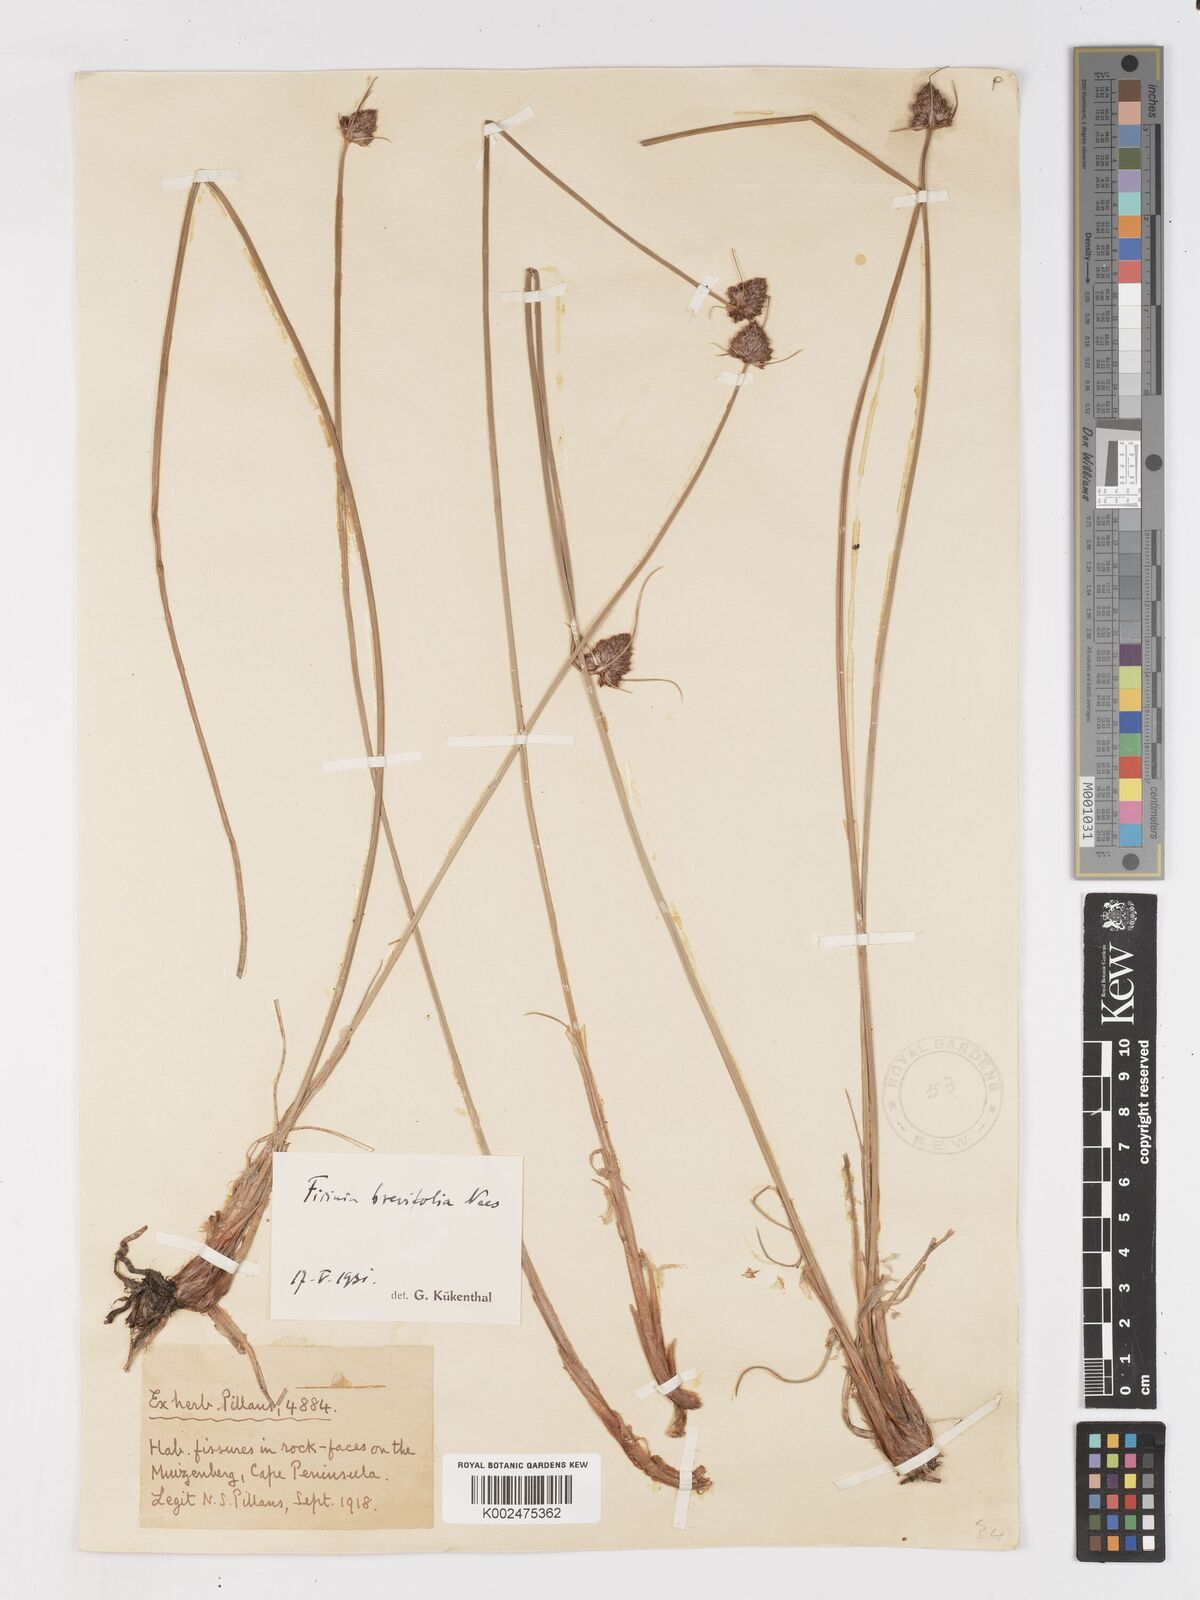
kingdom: Plantae
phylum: Tracheophyta
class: Liliopsida
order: Poales
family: Cyperaceae
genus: Ficinia
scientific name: Ficinia brevifolia
